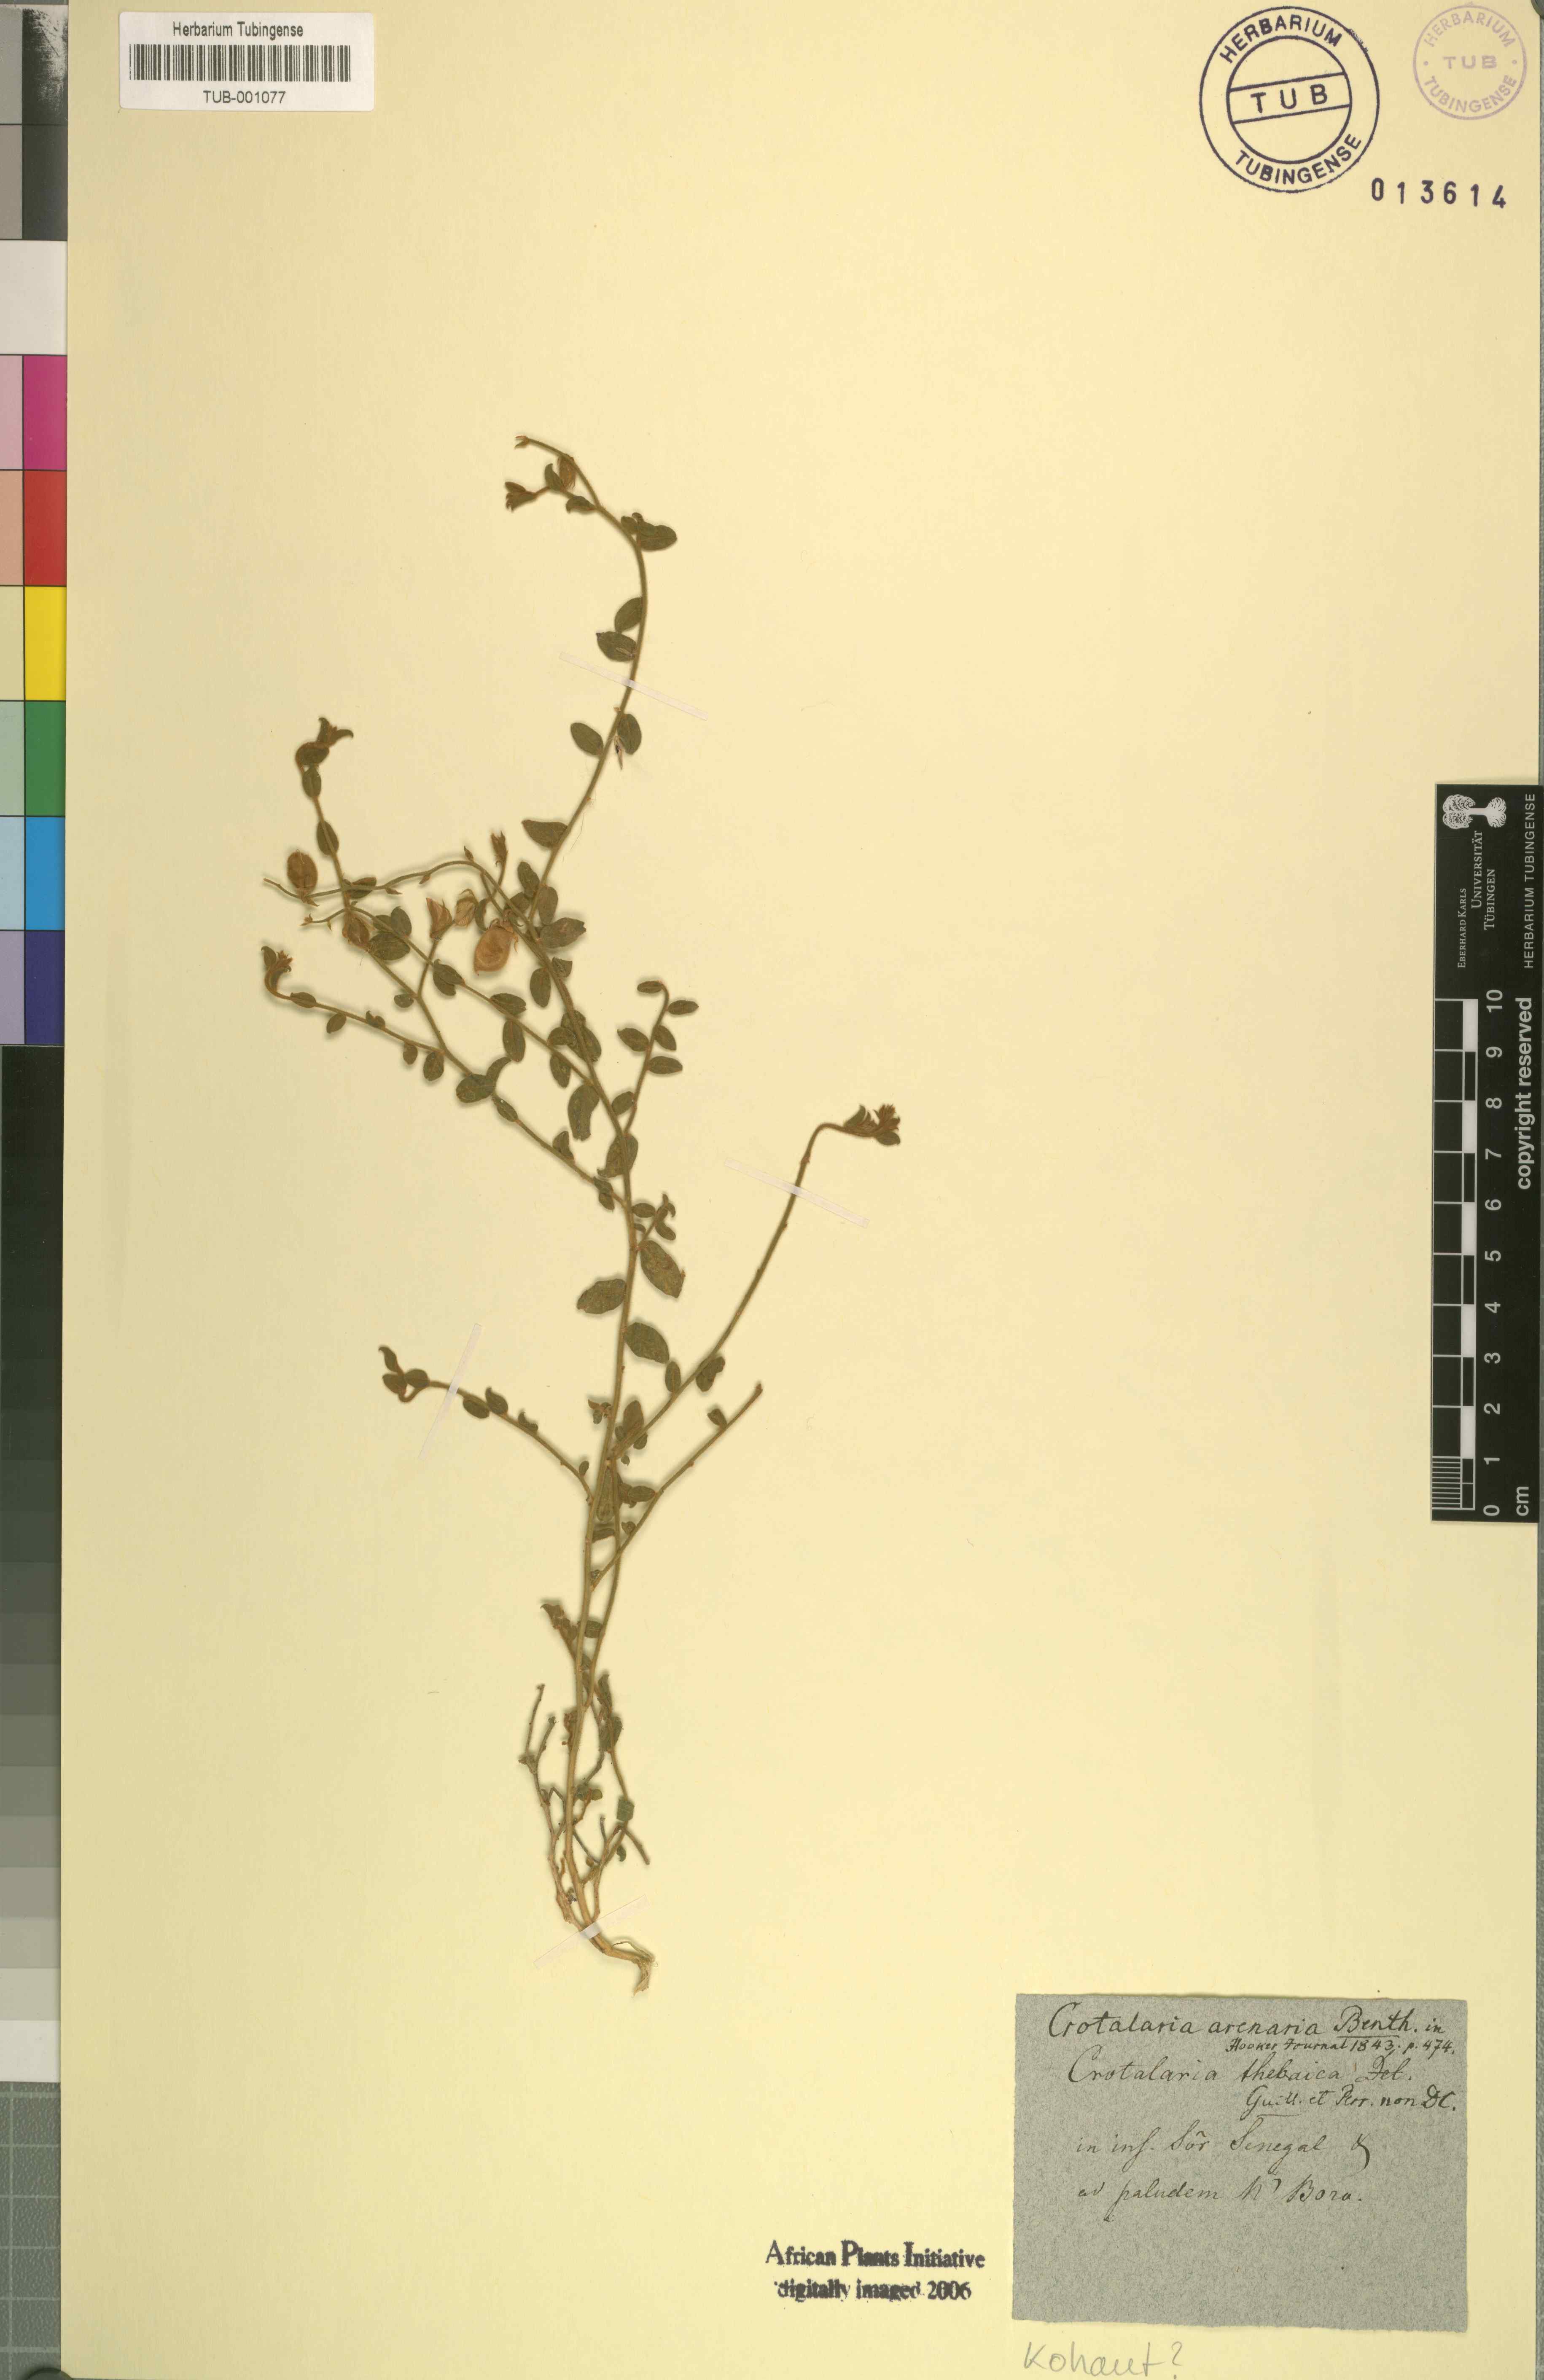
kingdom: Plantae
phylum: Tracheophyta
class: Magnoliopsida
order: Fabales
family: Fabaceae
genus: Crotalaria
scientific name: Crotalaria arenaria
